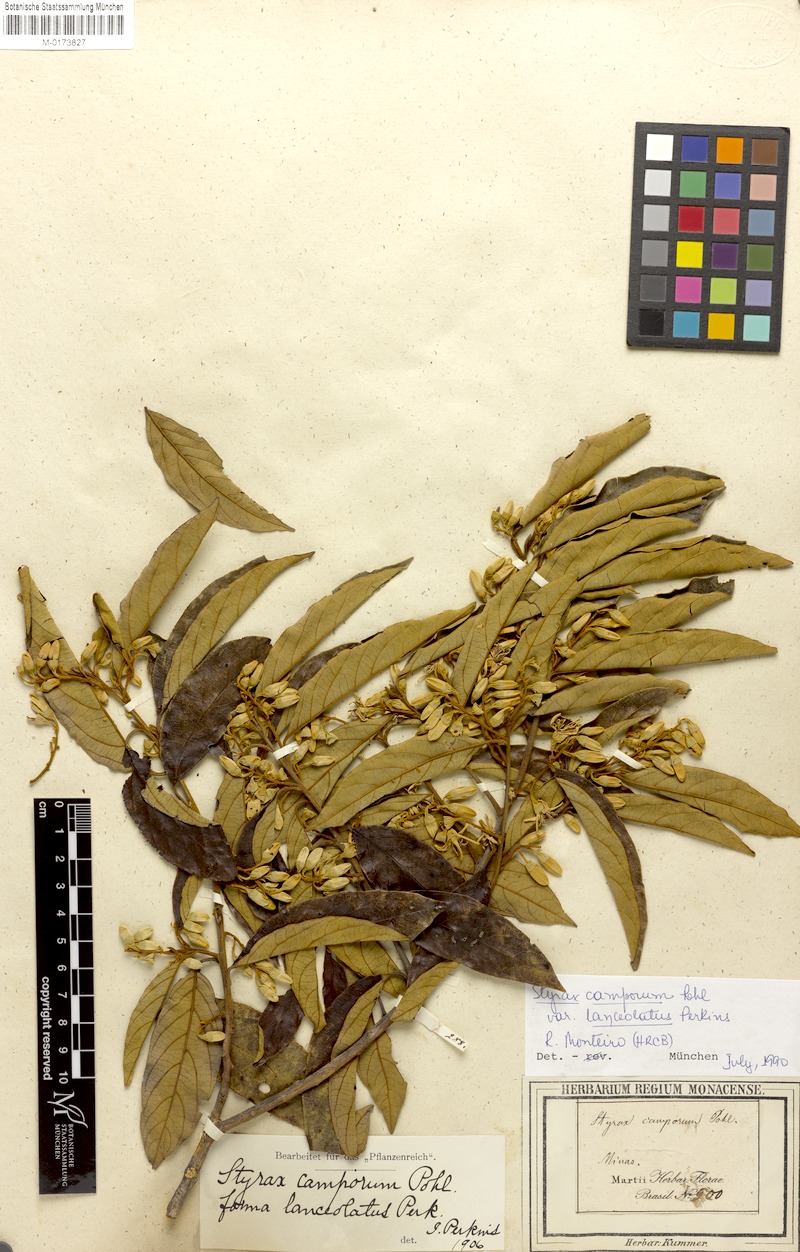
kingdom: Plantae
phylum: Tracheophyta
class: Magnoliopsida
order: Ericales
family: Styracaceae
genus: Styrax
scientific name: Styrax camporum
